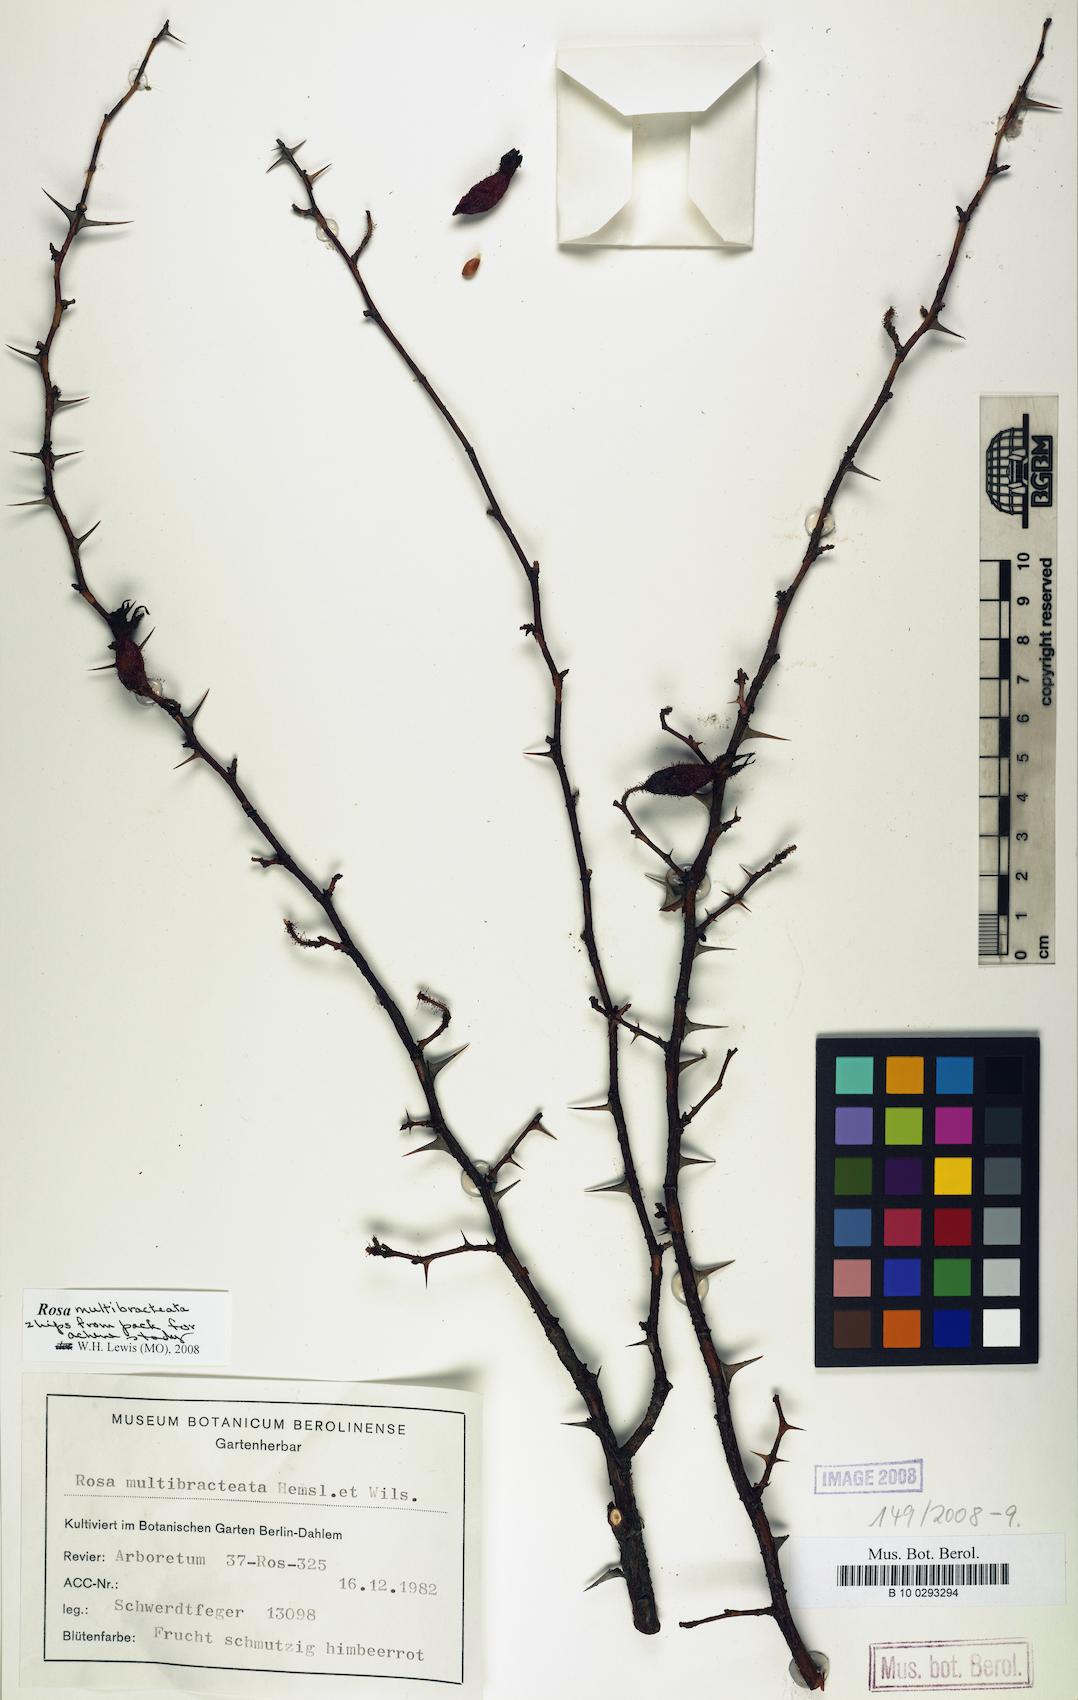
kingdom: Plantae
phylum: Tracheophyta
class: Magnoliopsida
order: Rosales
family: Rosaceae
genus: Rosa
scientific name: Rosa multibracteata
